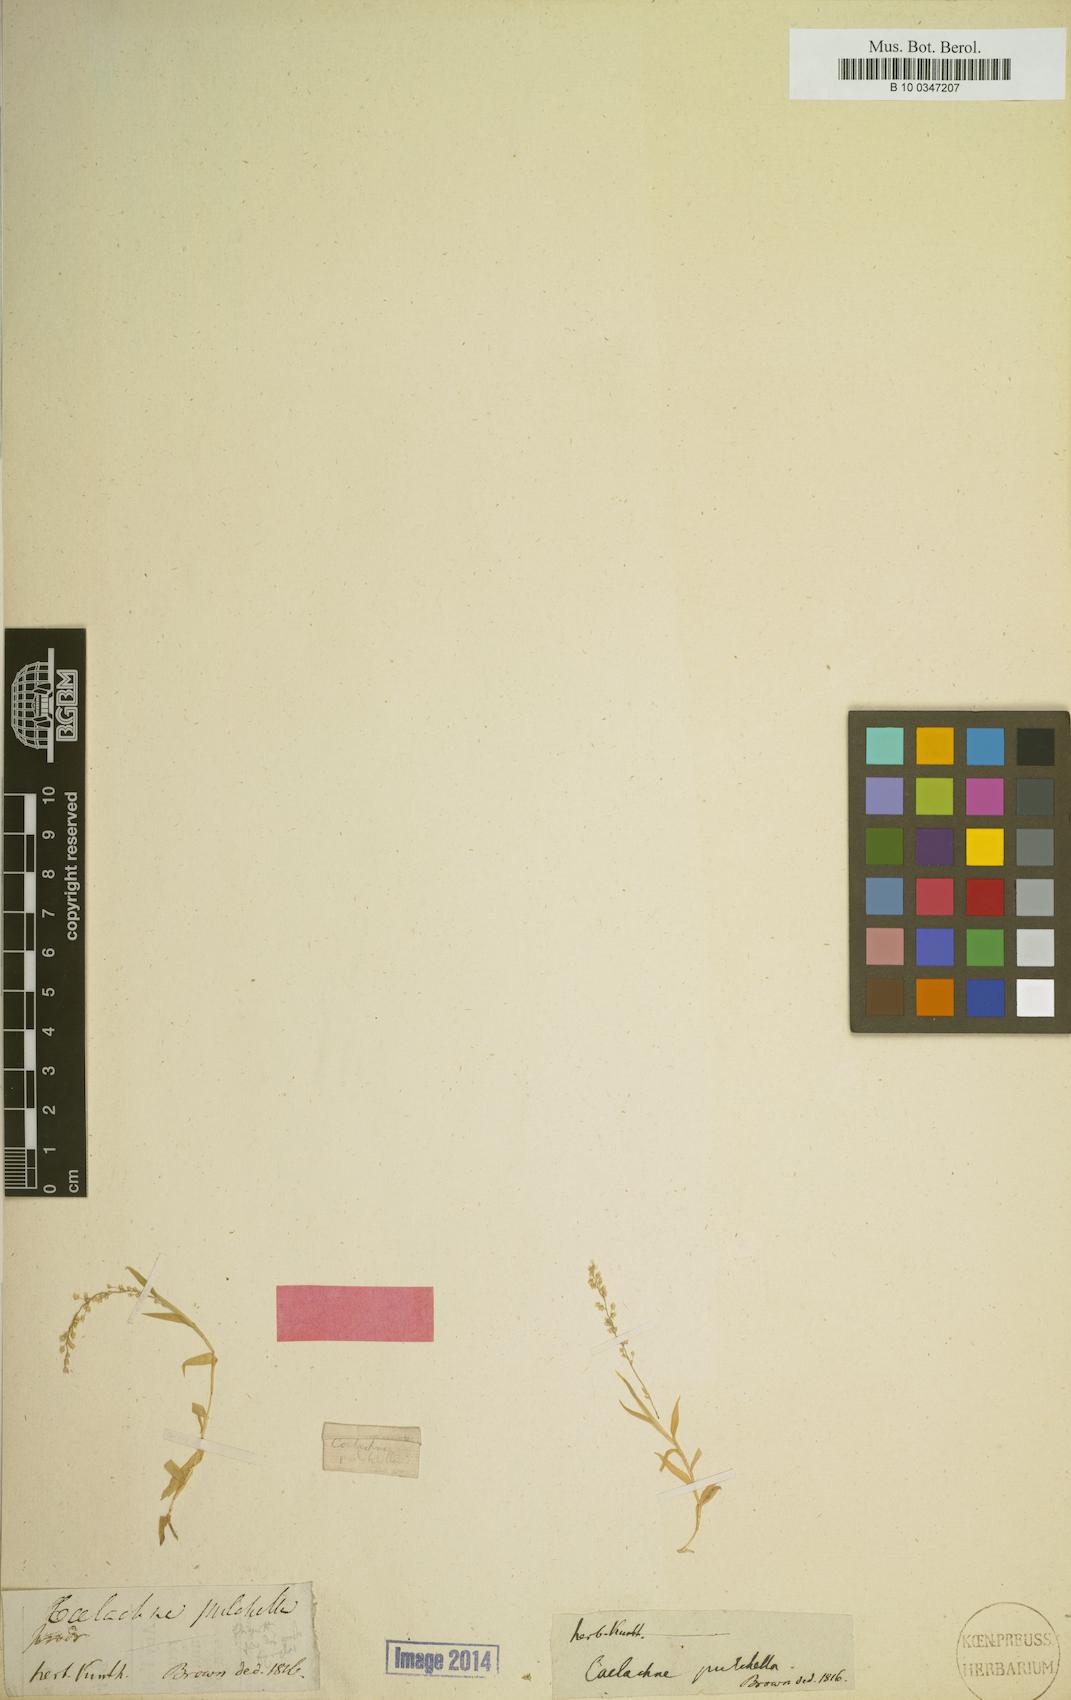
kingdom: Plantae
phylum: Tracheophyta
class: Liliopsida
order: Poales
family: Poaceae
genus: Coelachne
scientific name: Coelachne pulchella
